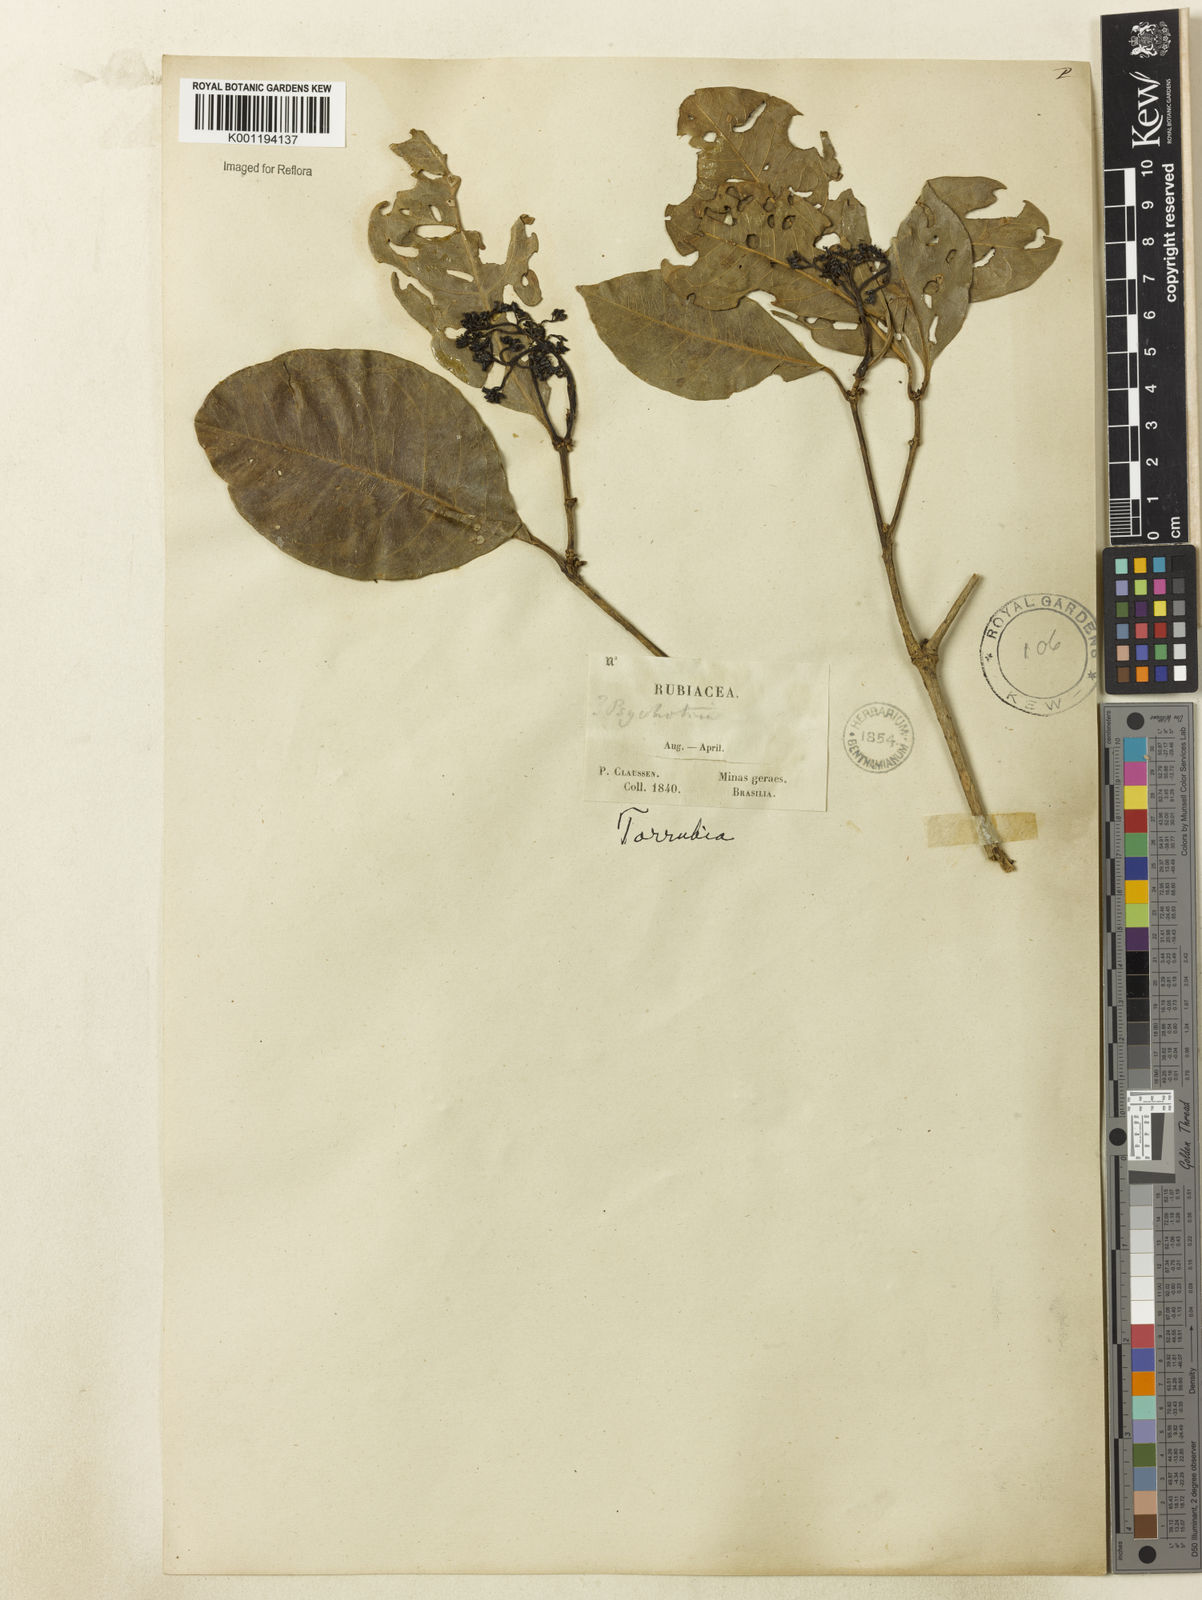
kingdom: Plantae
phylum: Tracheophyta
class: Magnoliopsida
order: Caryophyllales
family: Nyctaginaceae
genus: Guapira
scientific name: Guapira
